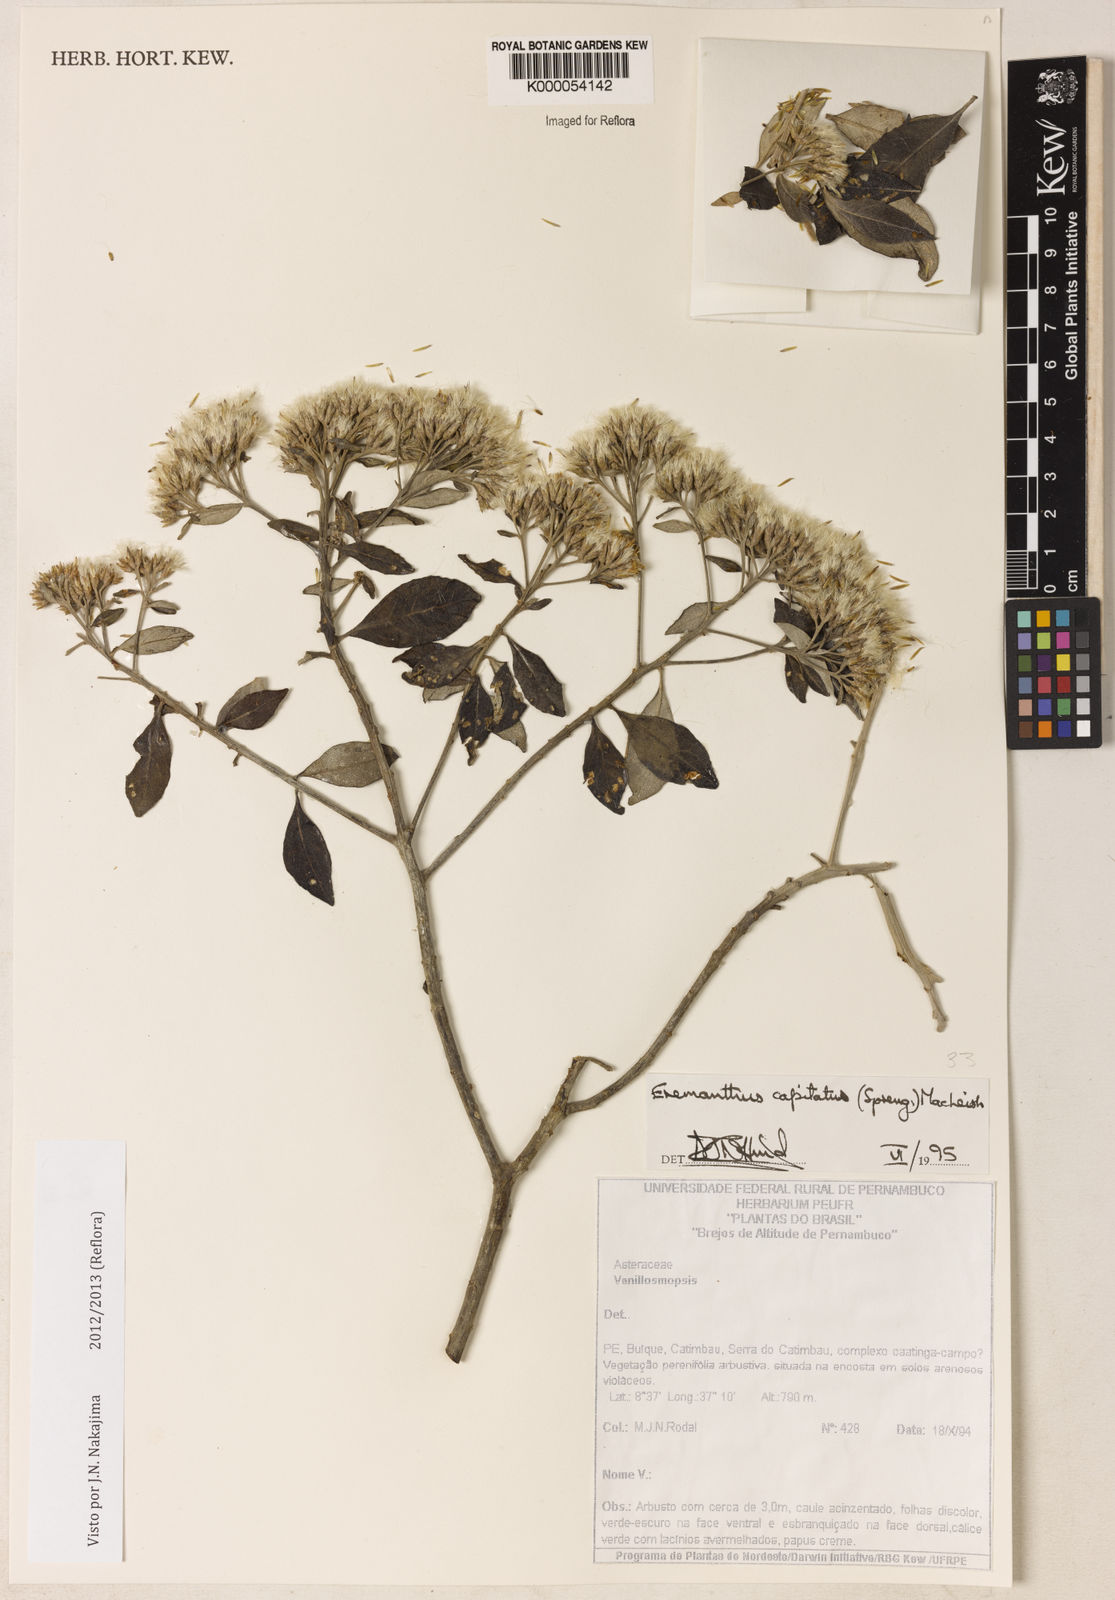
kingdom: Plantae
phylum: Tracheophyta
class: Magnoliopsida
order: Asterales
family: Asteraceae
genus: Eremanthus
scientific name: Eremanthus capitatus
